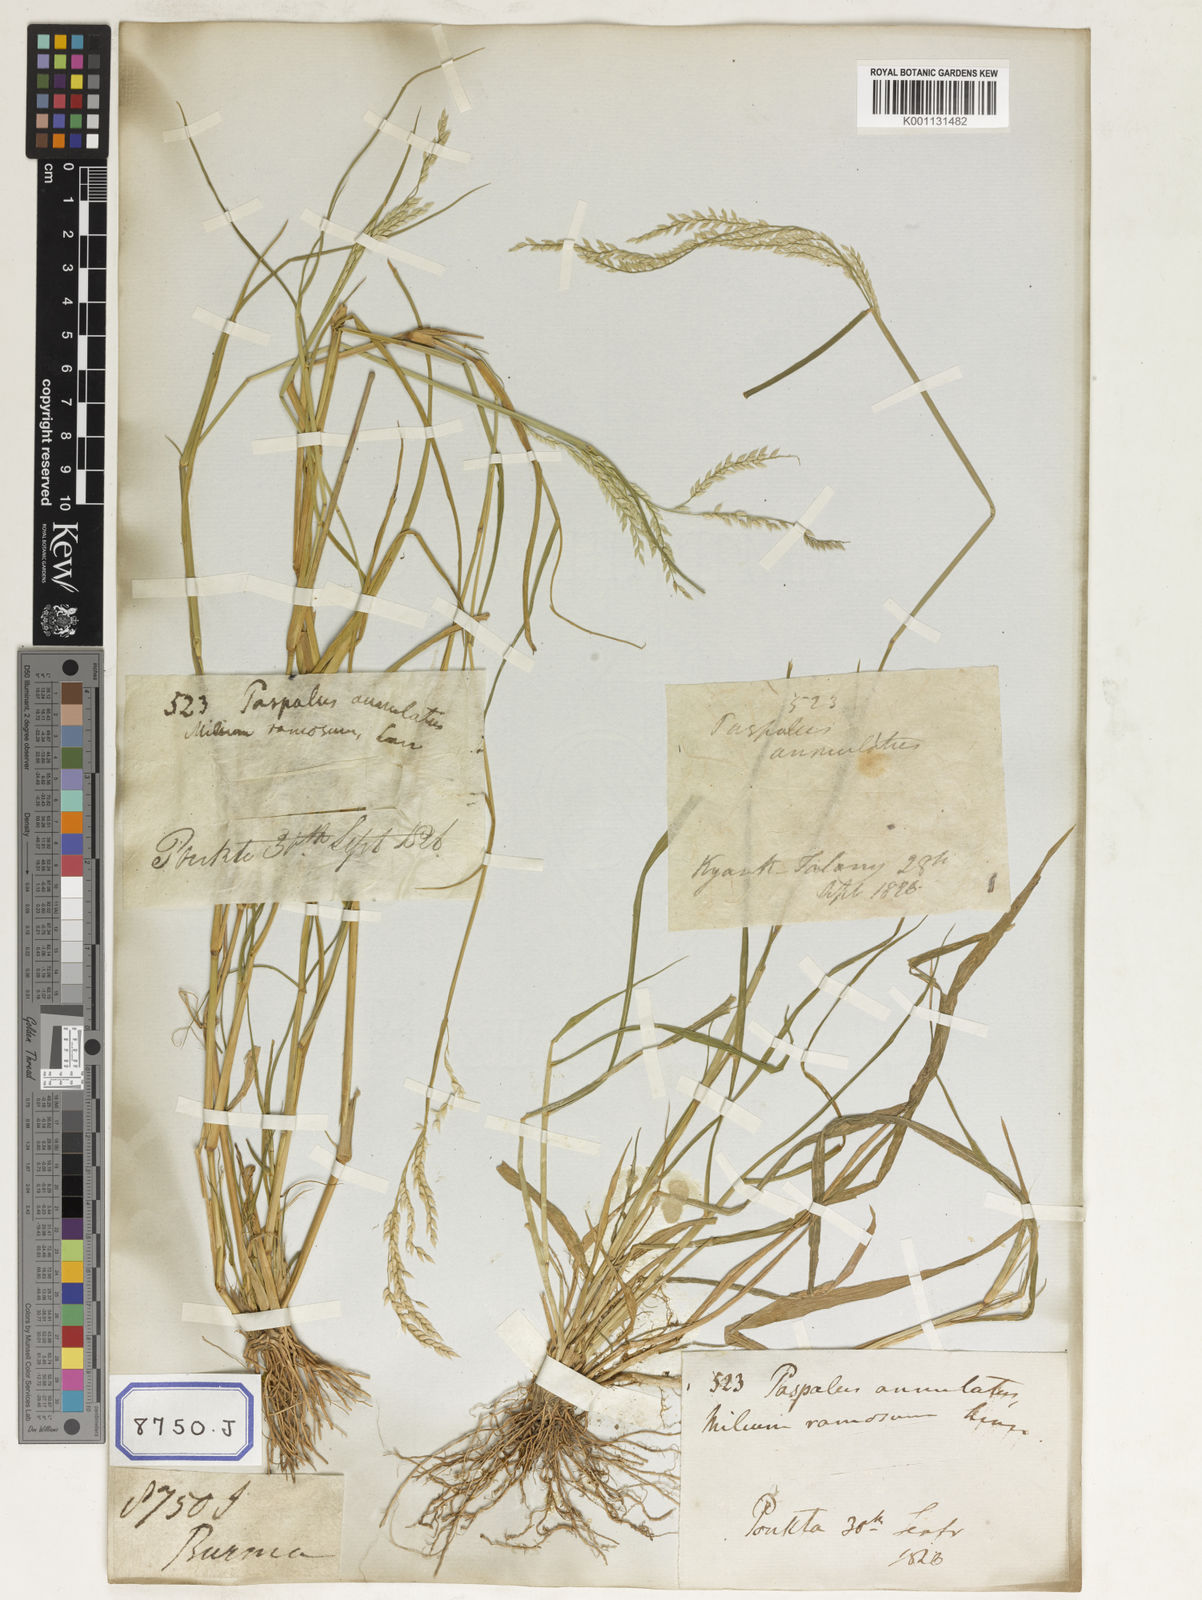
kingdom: Plantae
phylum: Tracheophyta
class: Liliopsida
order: Poales
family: Poaceae
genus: Eriochloa
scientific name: Eriochloa procera
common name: Spring grass
